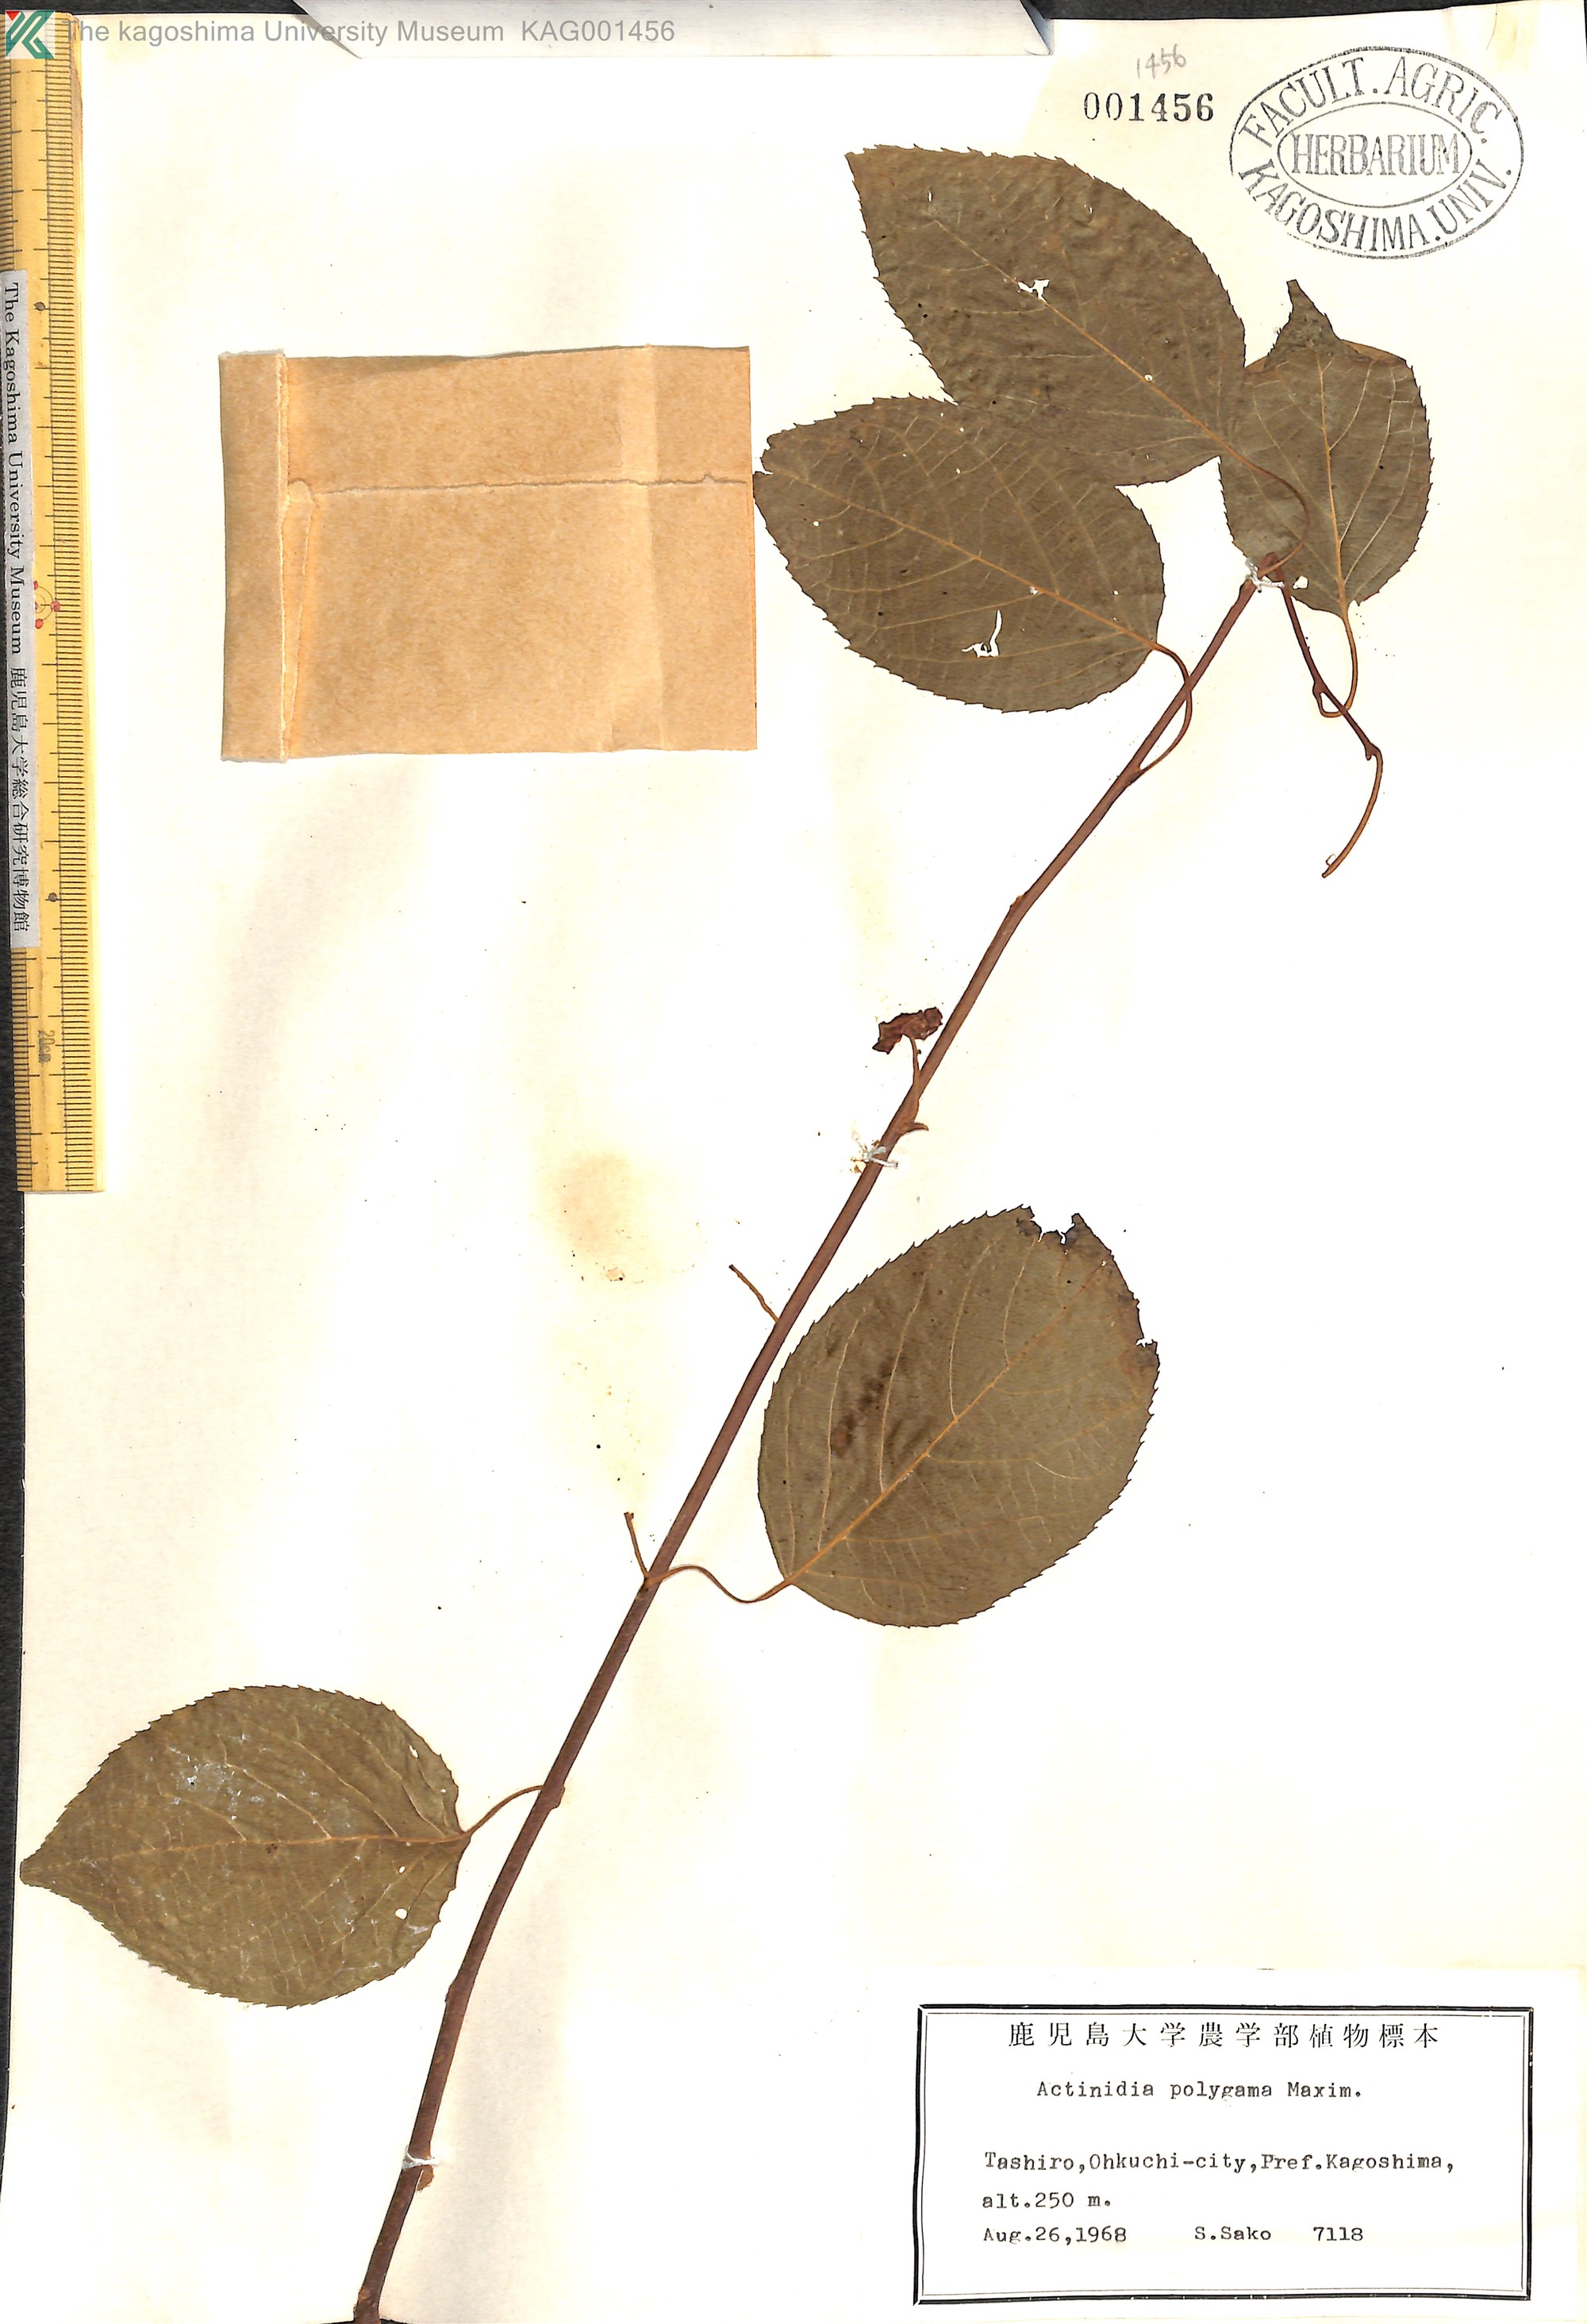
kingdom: Plantae
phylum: Tracheophyta
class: Magnoliopsida
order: Ericales
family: Actinidiaceae
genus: Actinidia
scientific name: Actinidia polygama
